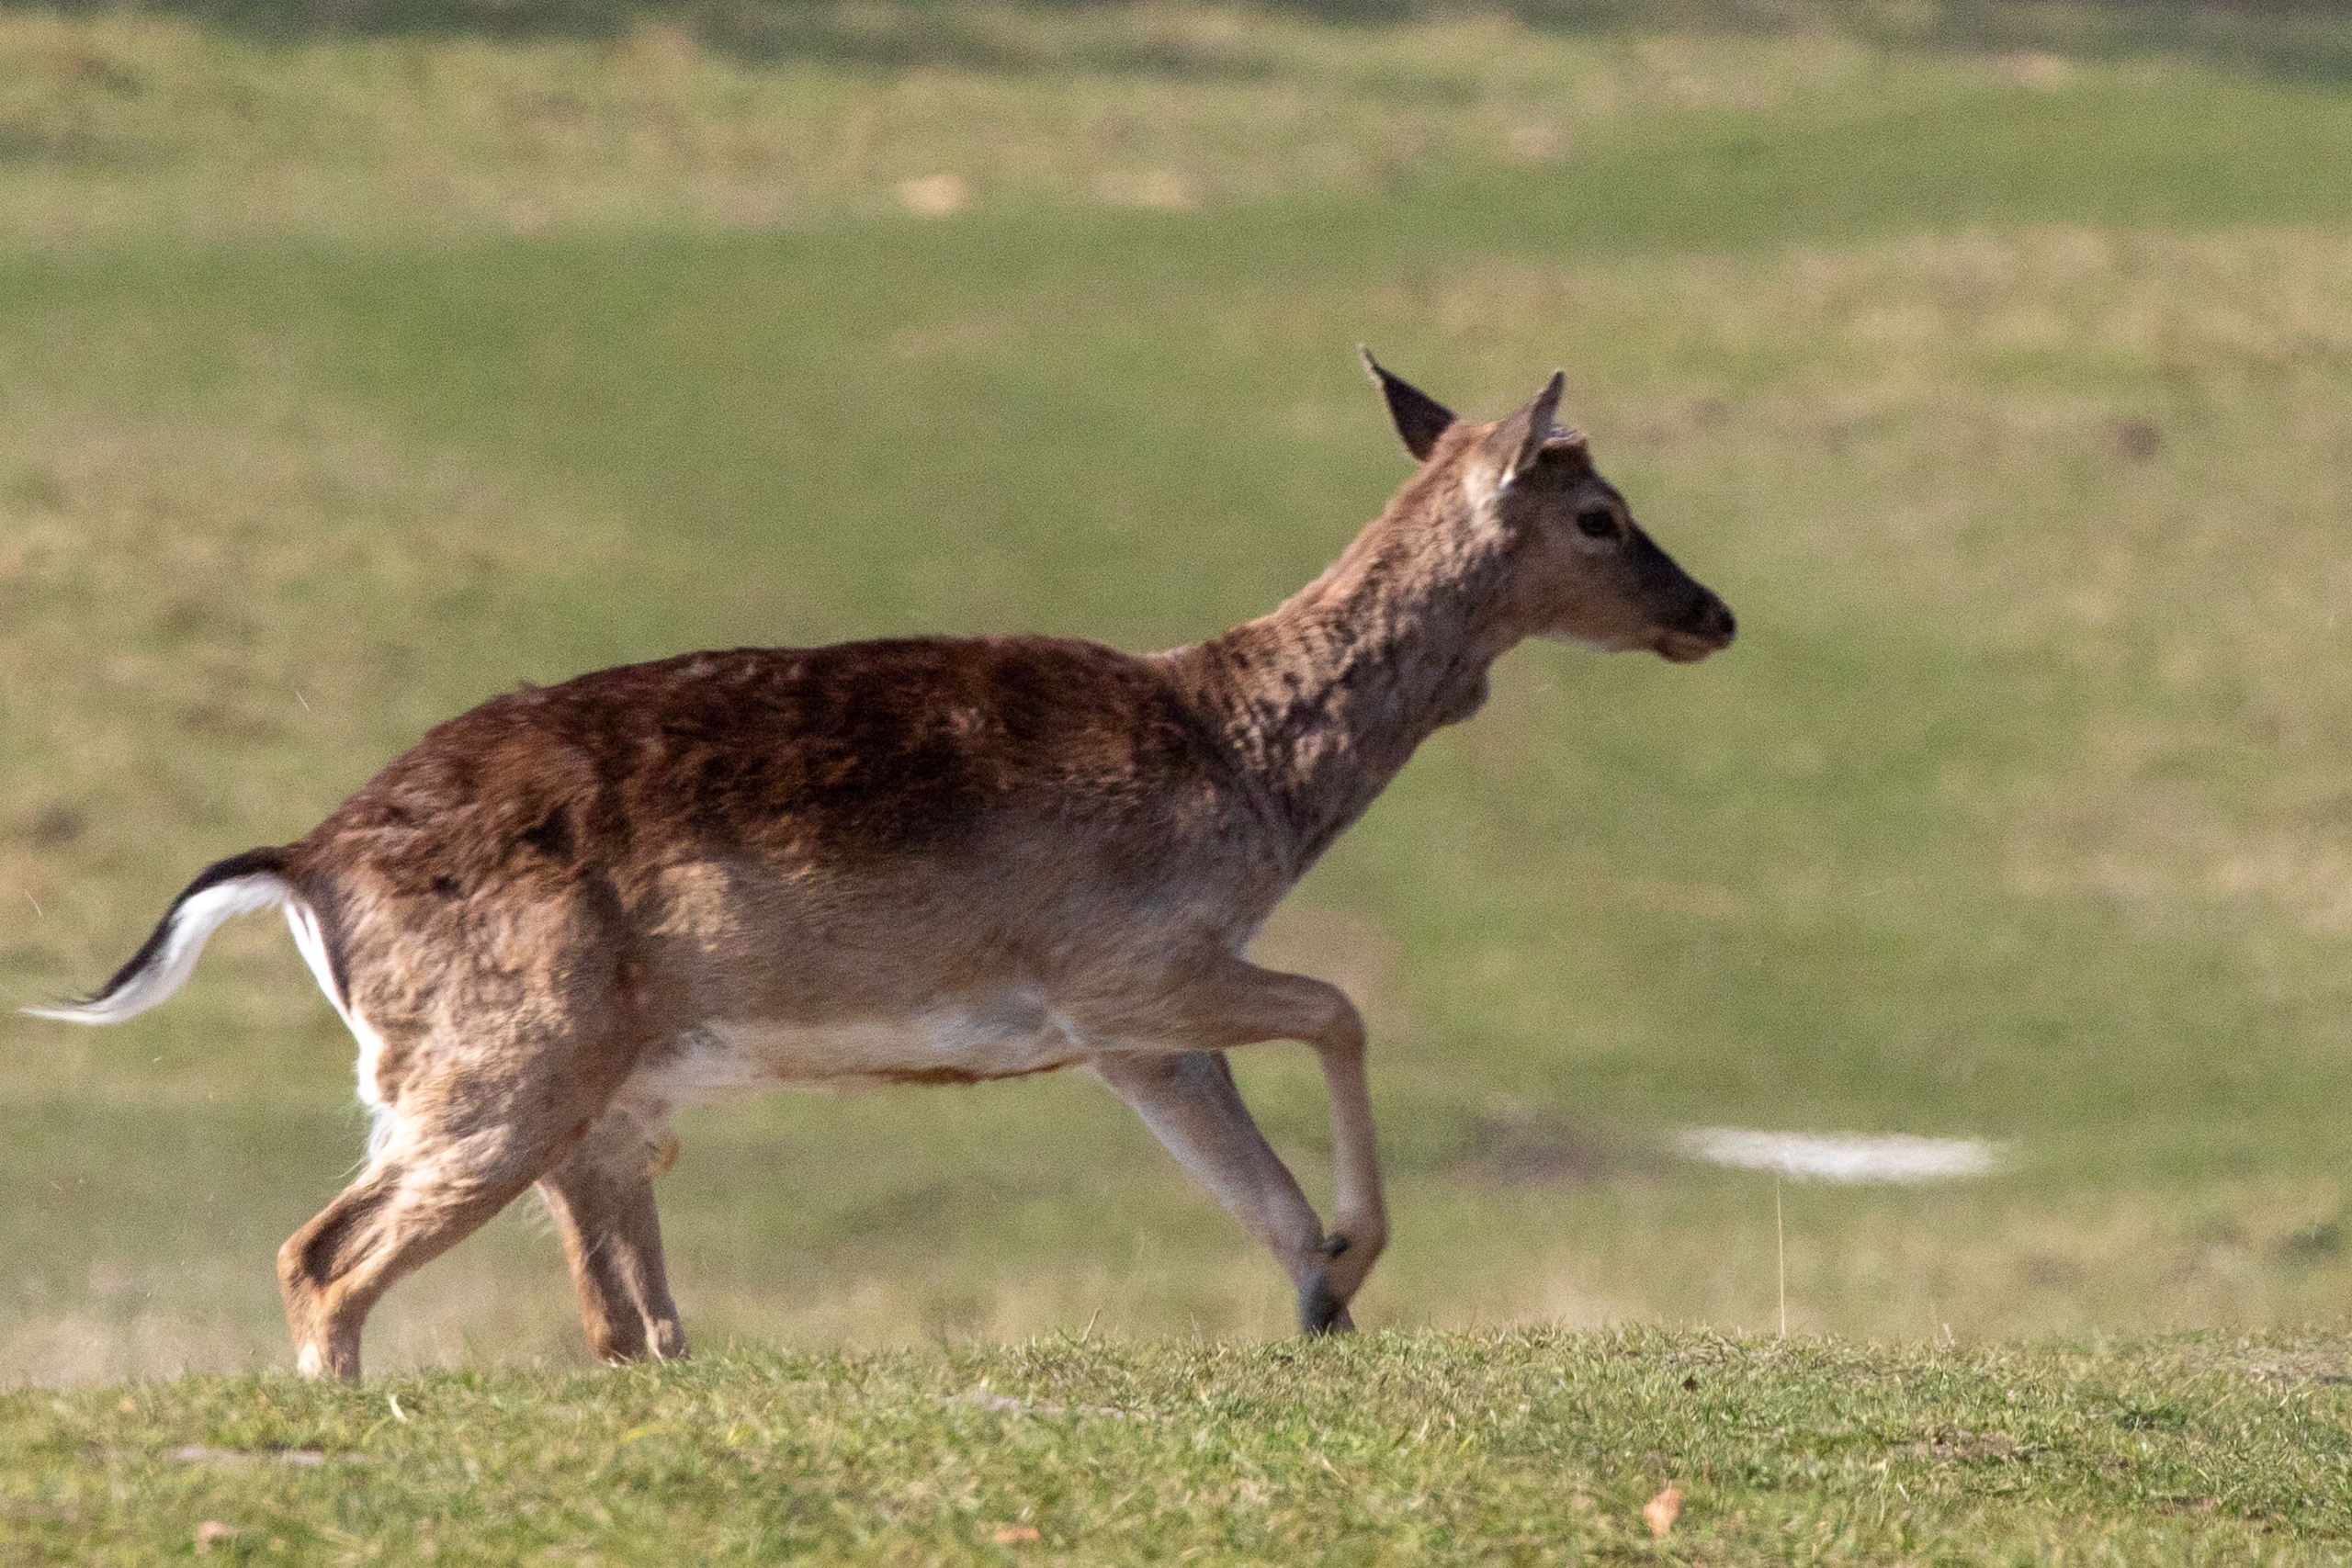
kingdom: Animalia
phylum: Chordata
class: Mammalia
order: Artiodactyla
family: Cervidae
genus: Cervus
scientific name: Cervus nippon
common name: Sika
